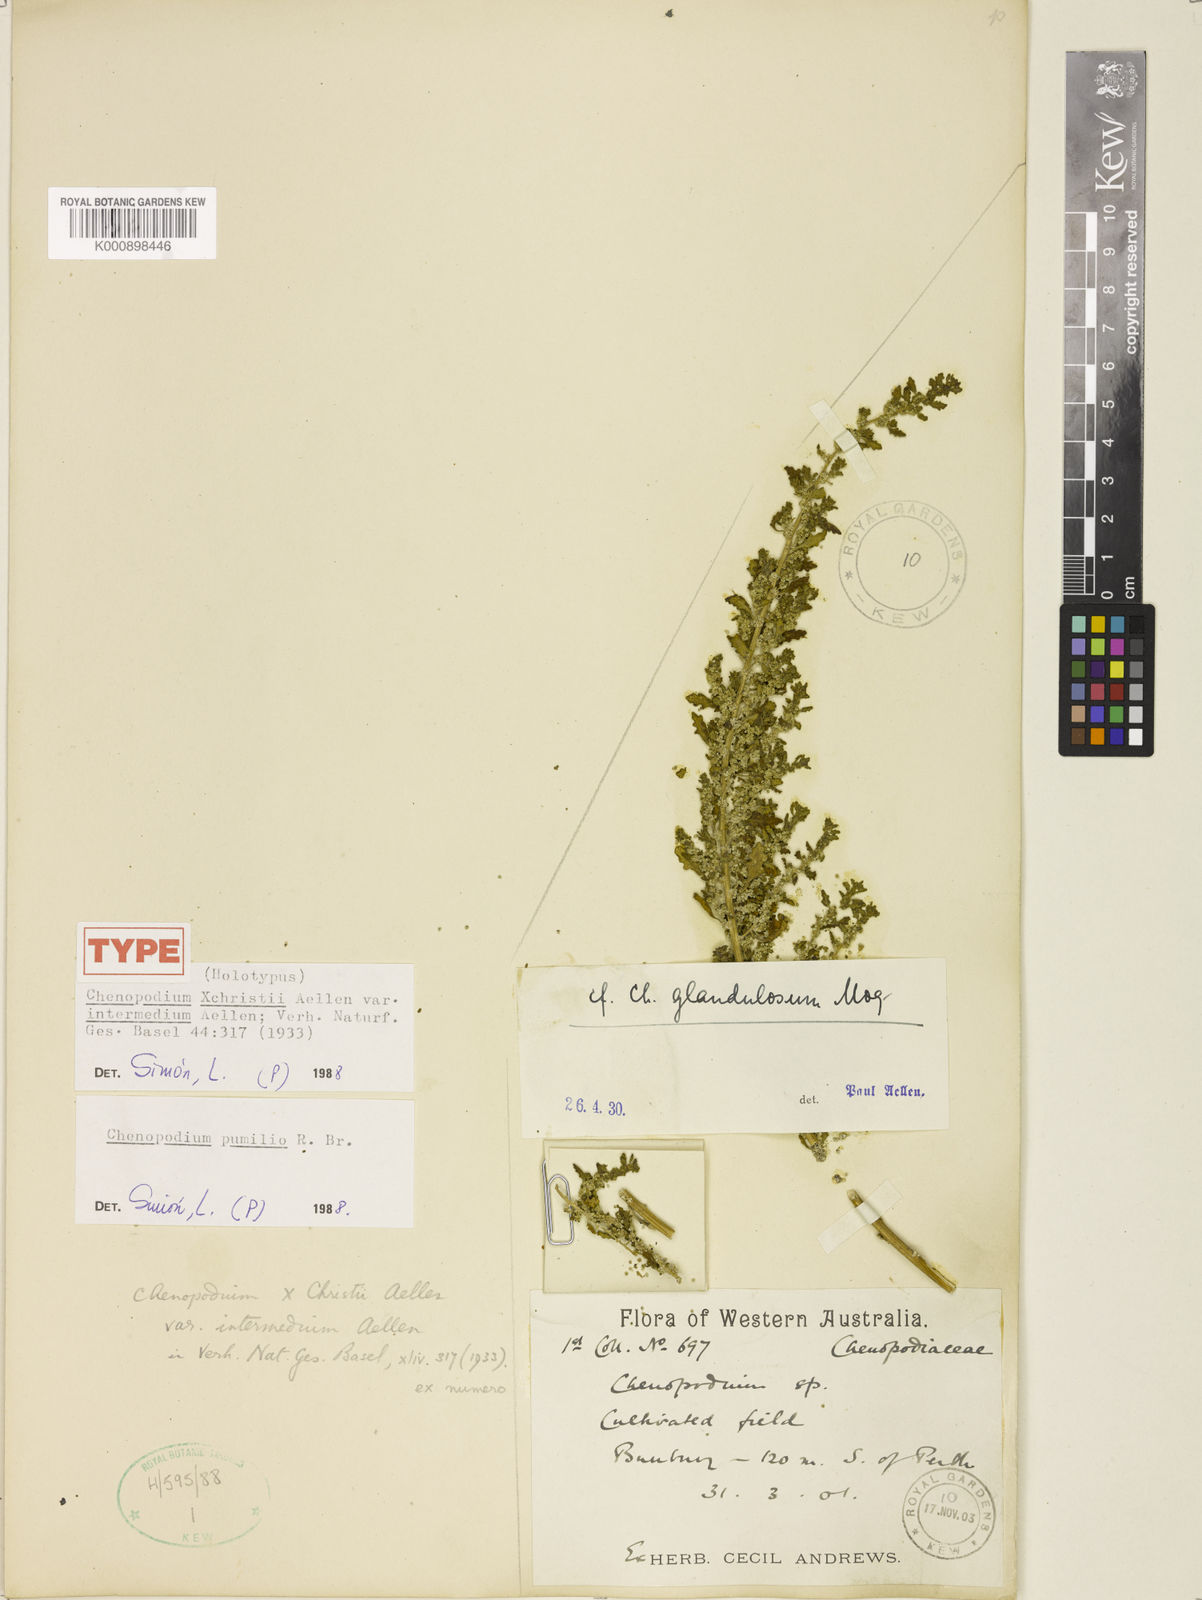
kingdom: Plantae
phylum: Tracheophyta
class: Magnoliopsida
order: Caryophyllales
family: Amaranthaceae
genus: Dysphania
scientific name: Dysphania christii
